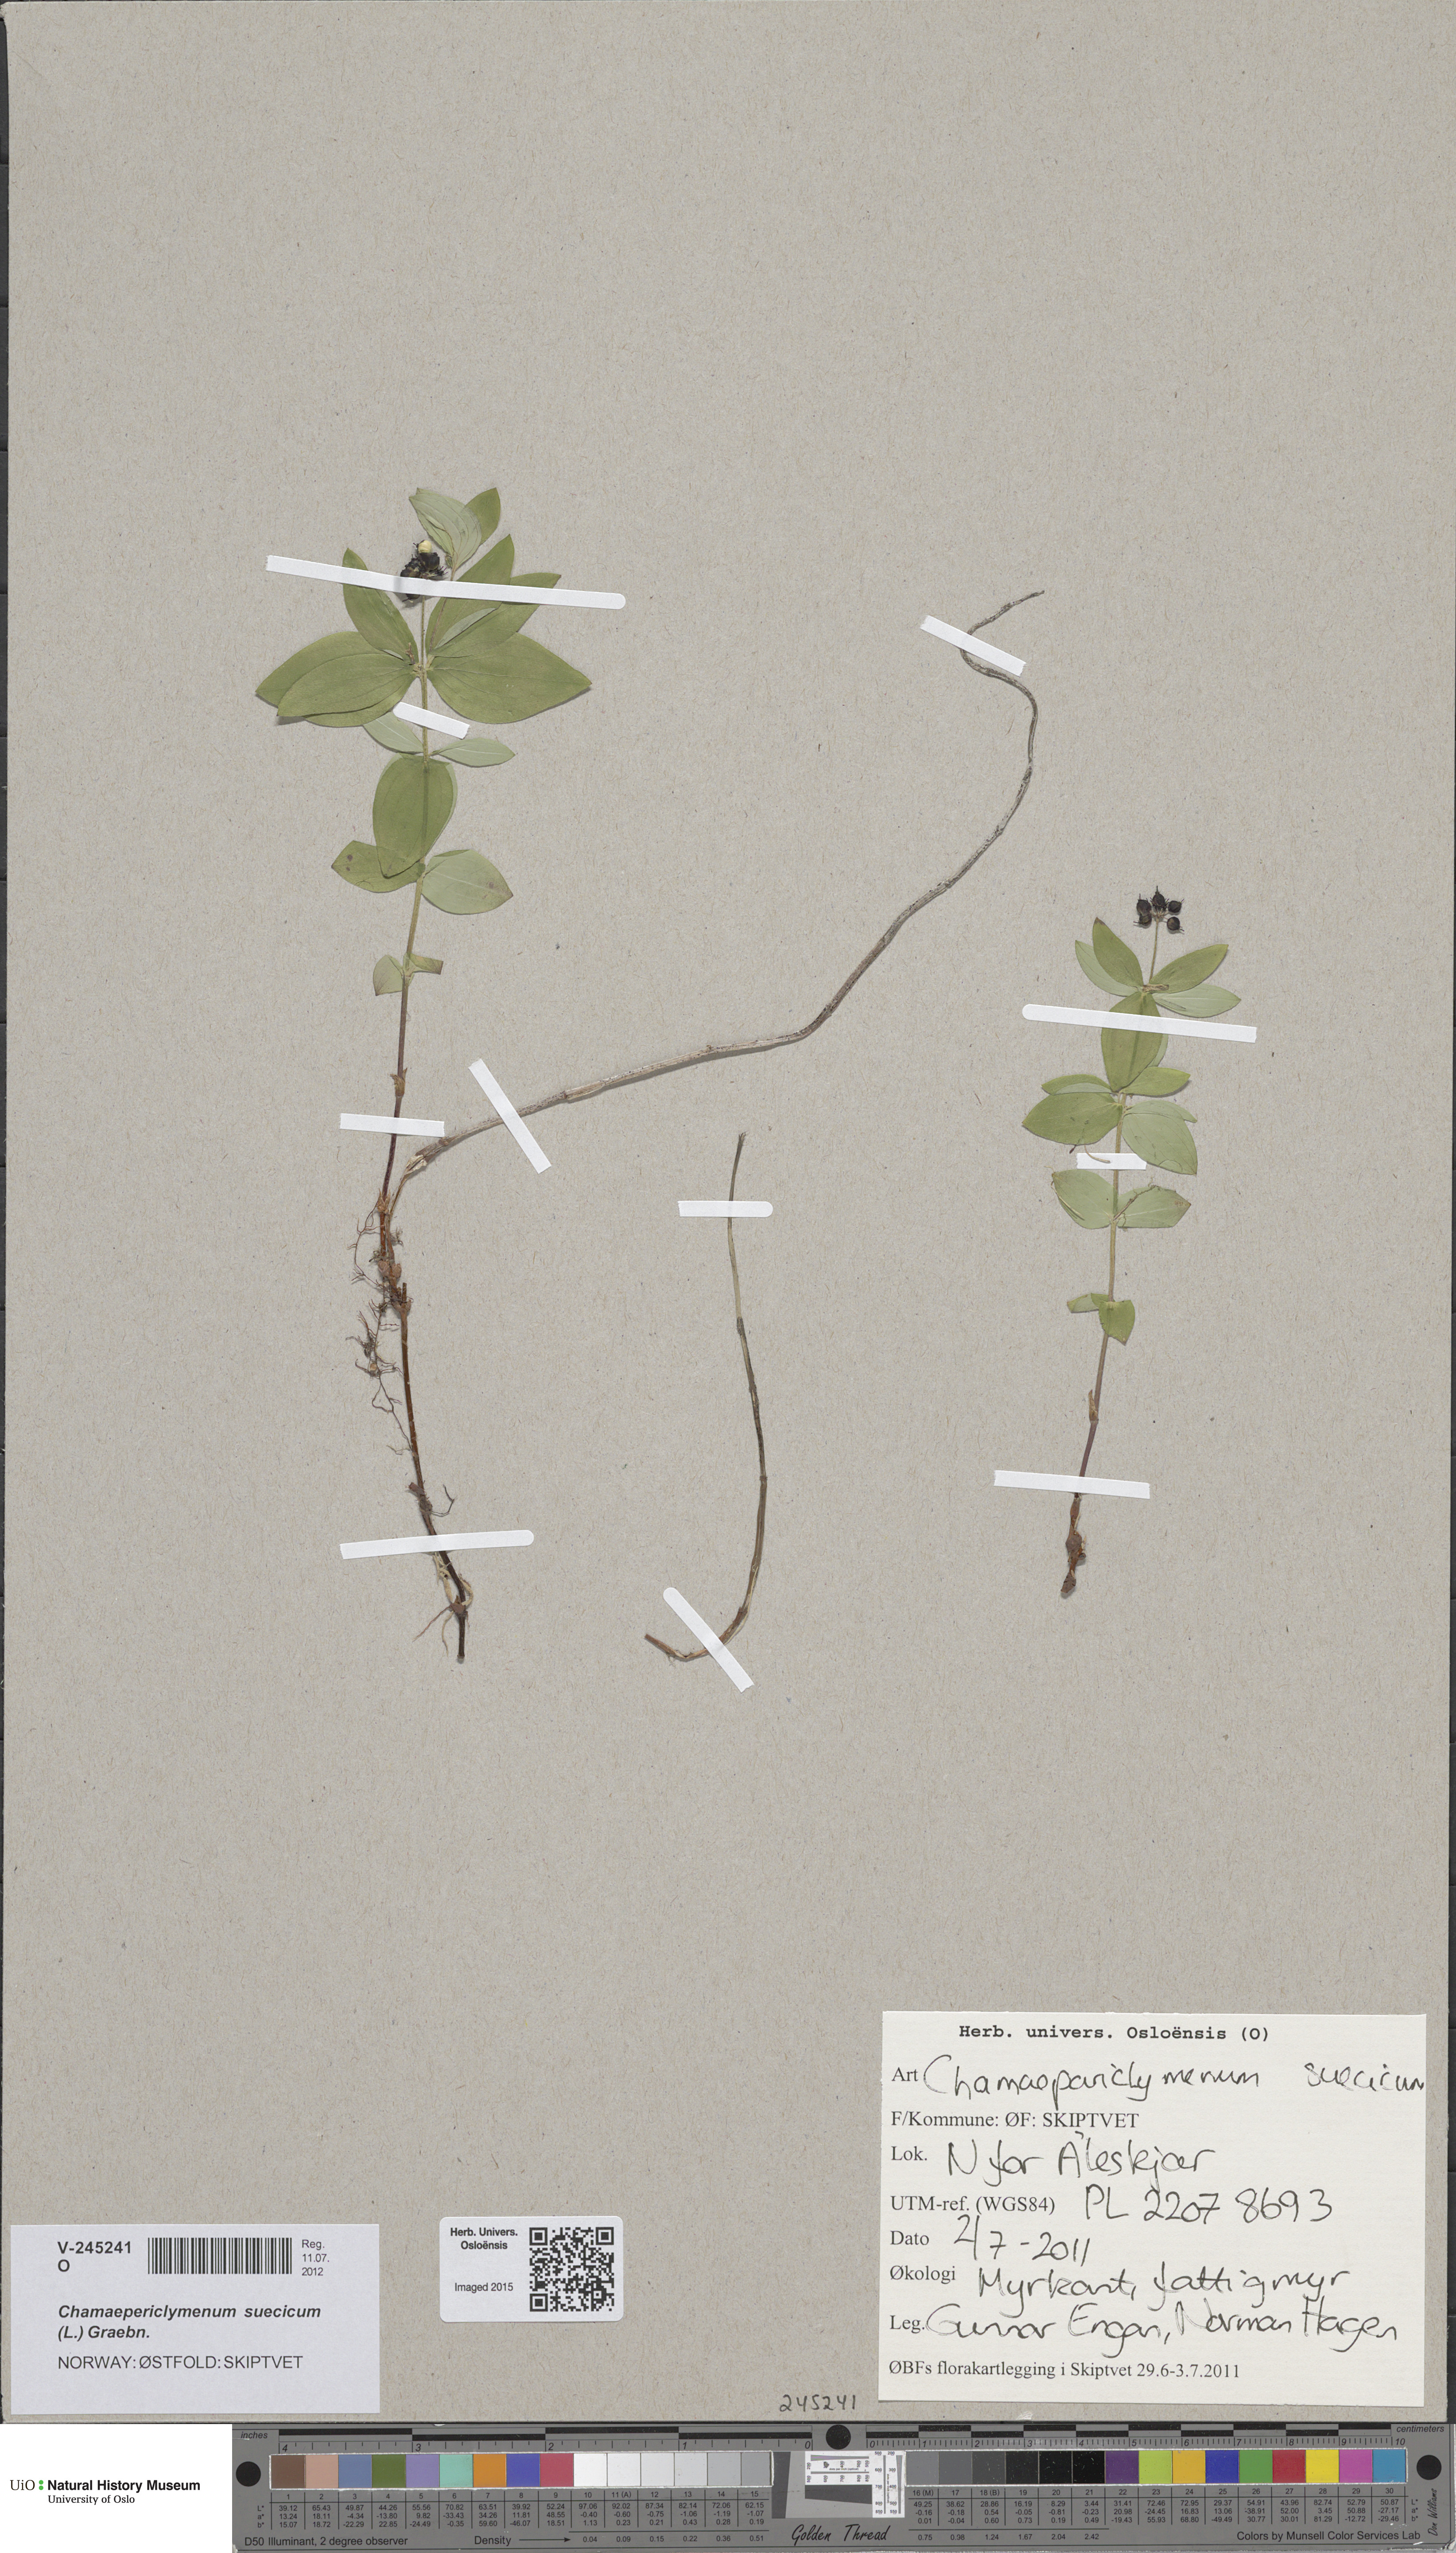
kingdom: Plantae
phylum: Tracheophyta
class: Magnoliopsida
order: Cornales
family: Cornaceae
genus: Cornus
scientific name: Cornus suecica
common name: Dwarf cornel
